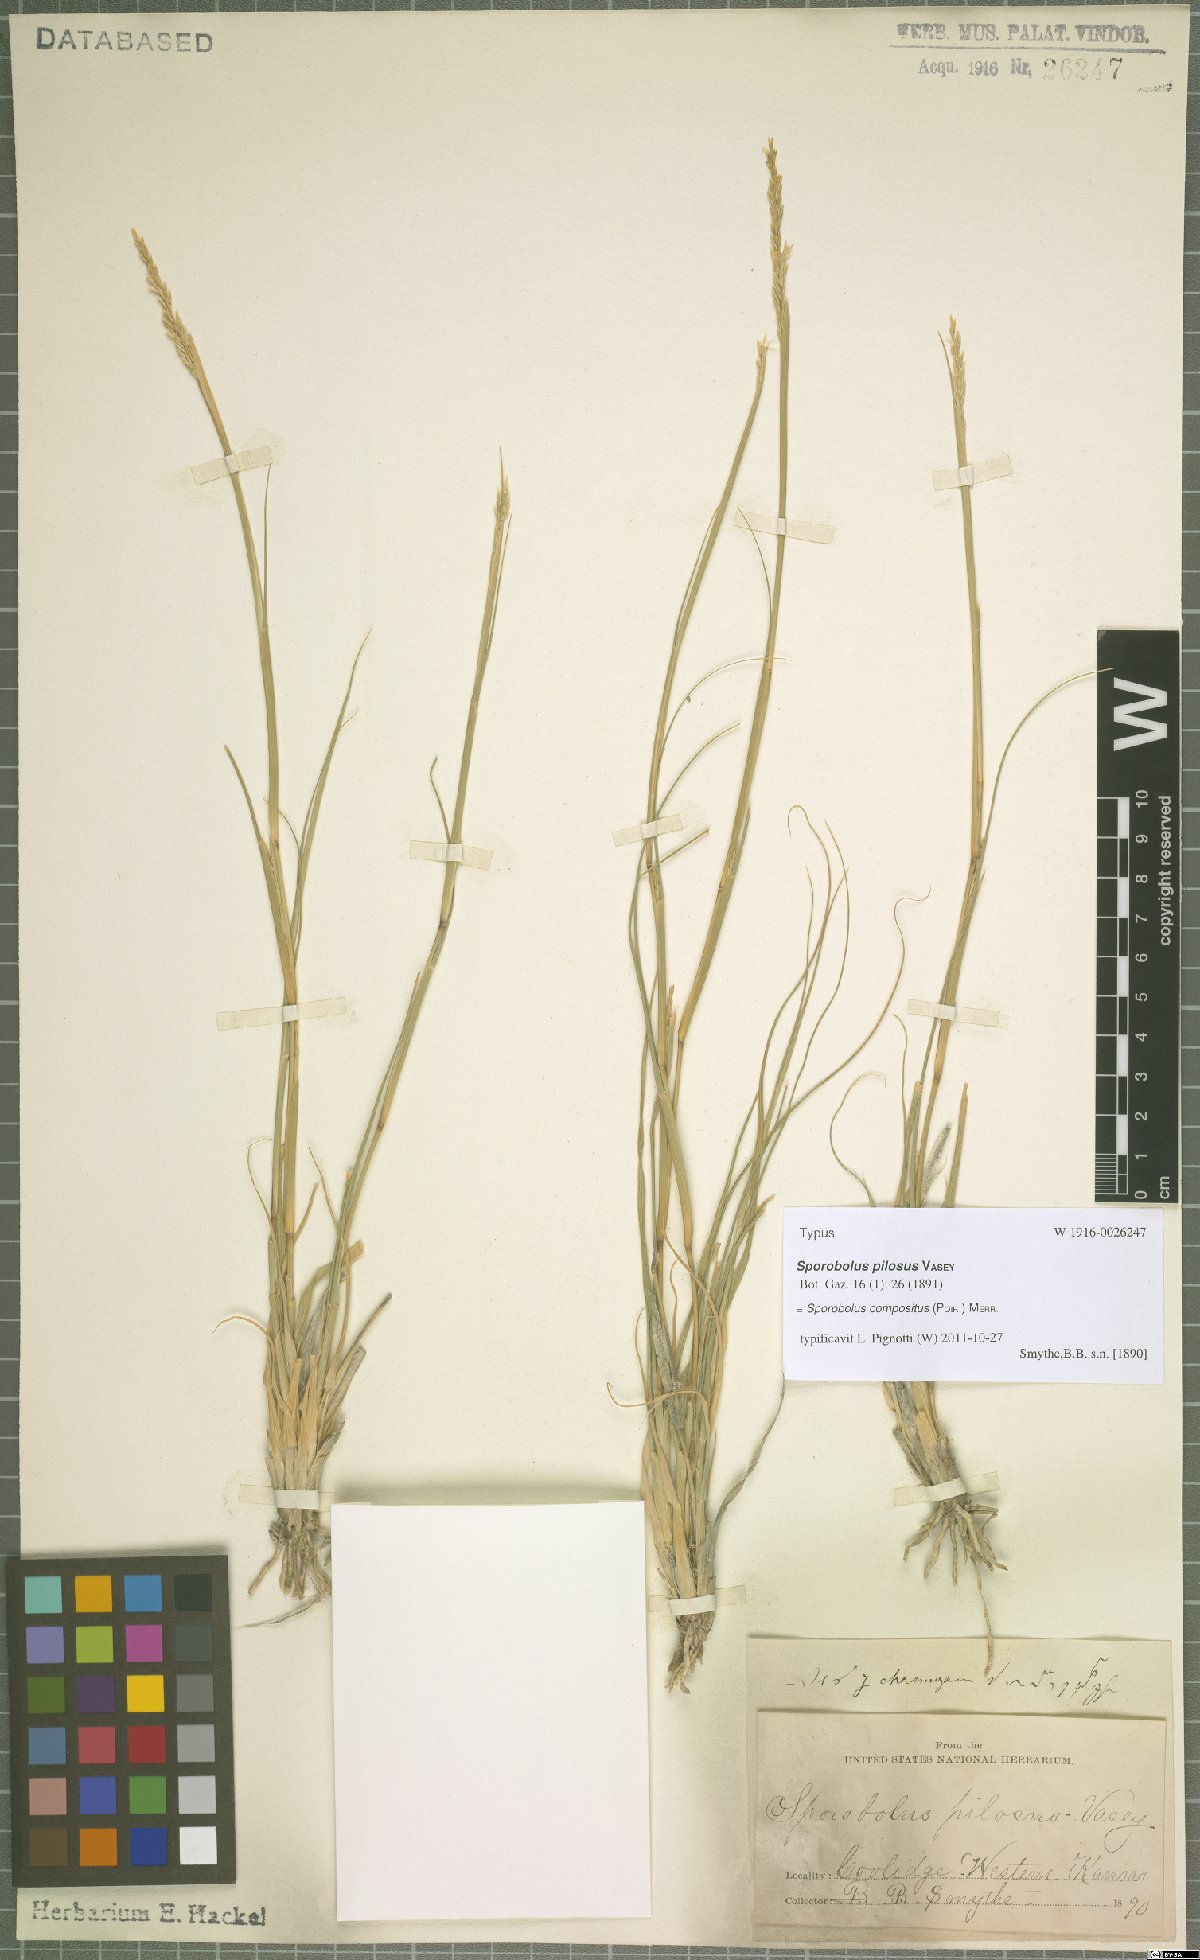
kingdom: Plantae
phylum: Tracheophyta
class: Liliopsida
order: Poales
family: Poaceae
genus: Sporobolus
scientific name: Sporobolus compositus
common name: Rough dropseed
